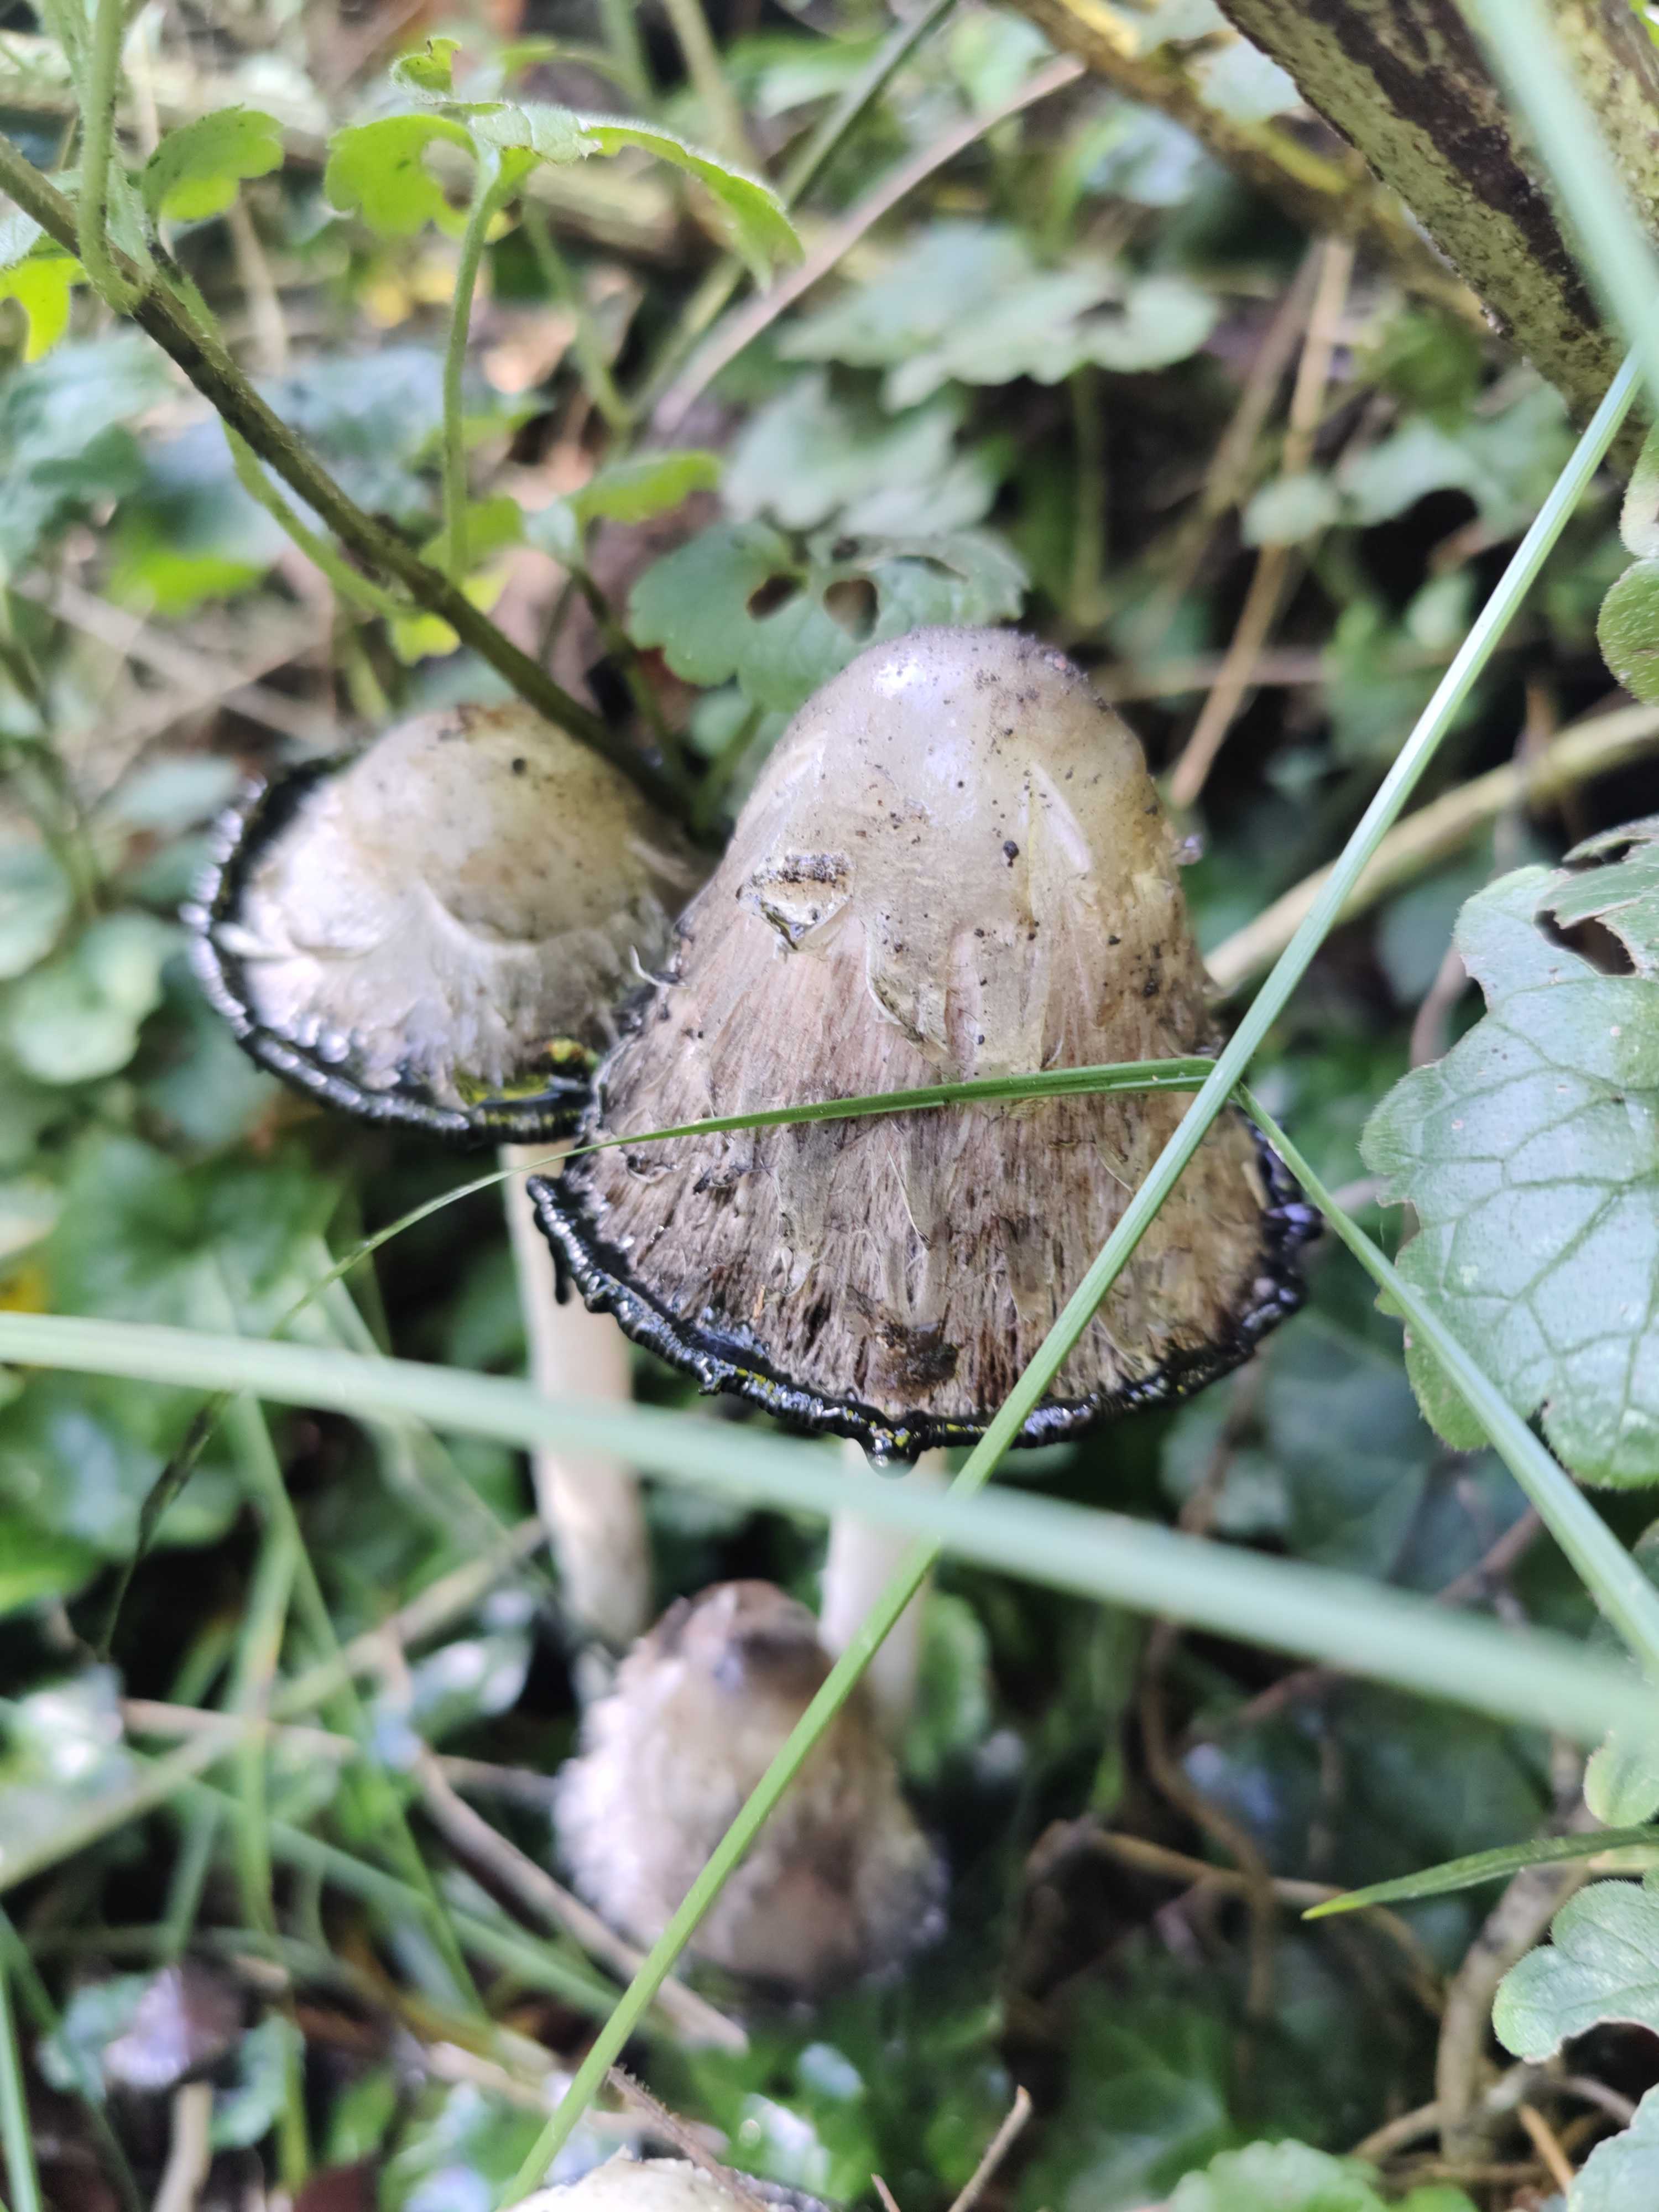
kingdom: Fungi
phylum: Basidiomycota
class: Agaricomycetes
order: Agaricales
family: Agaricaceae
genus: Coprinus
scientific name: Coprinus comatus
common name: stor parykhat
